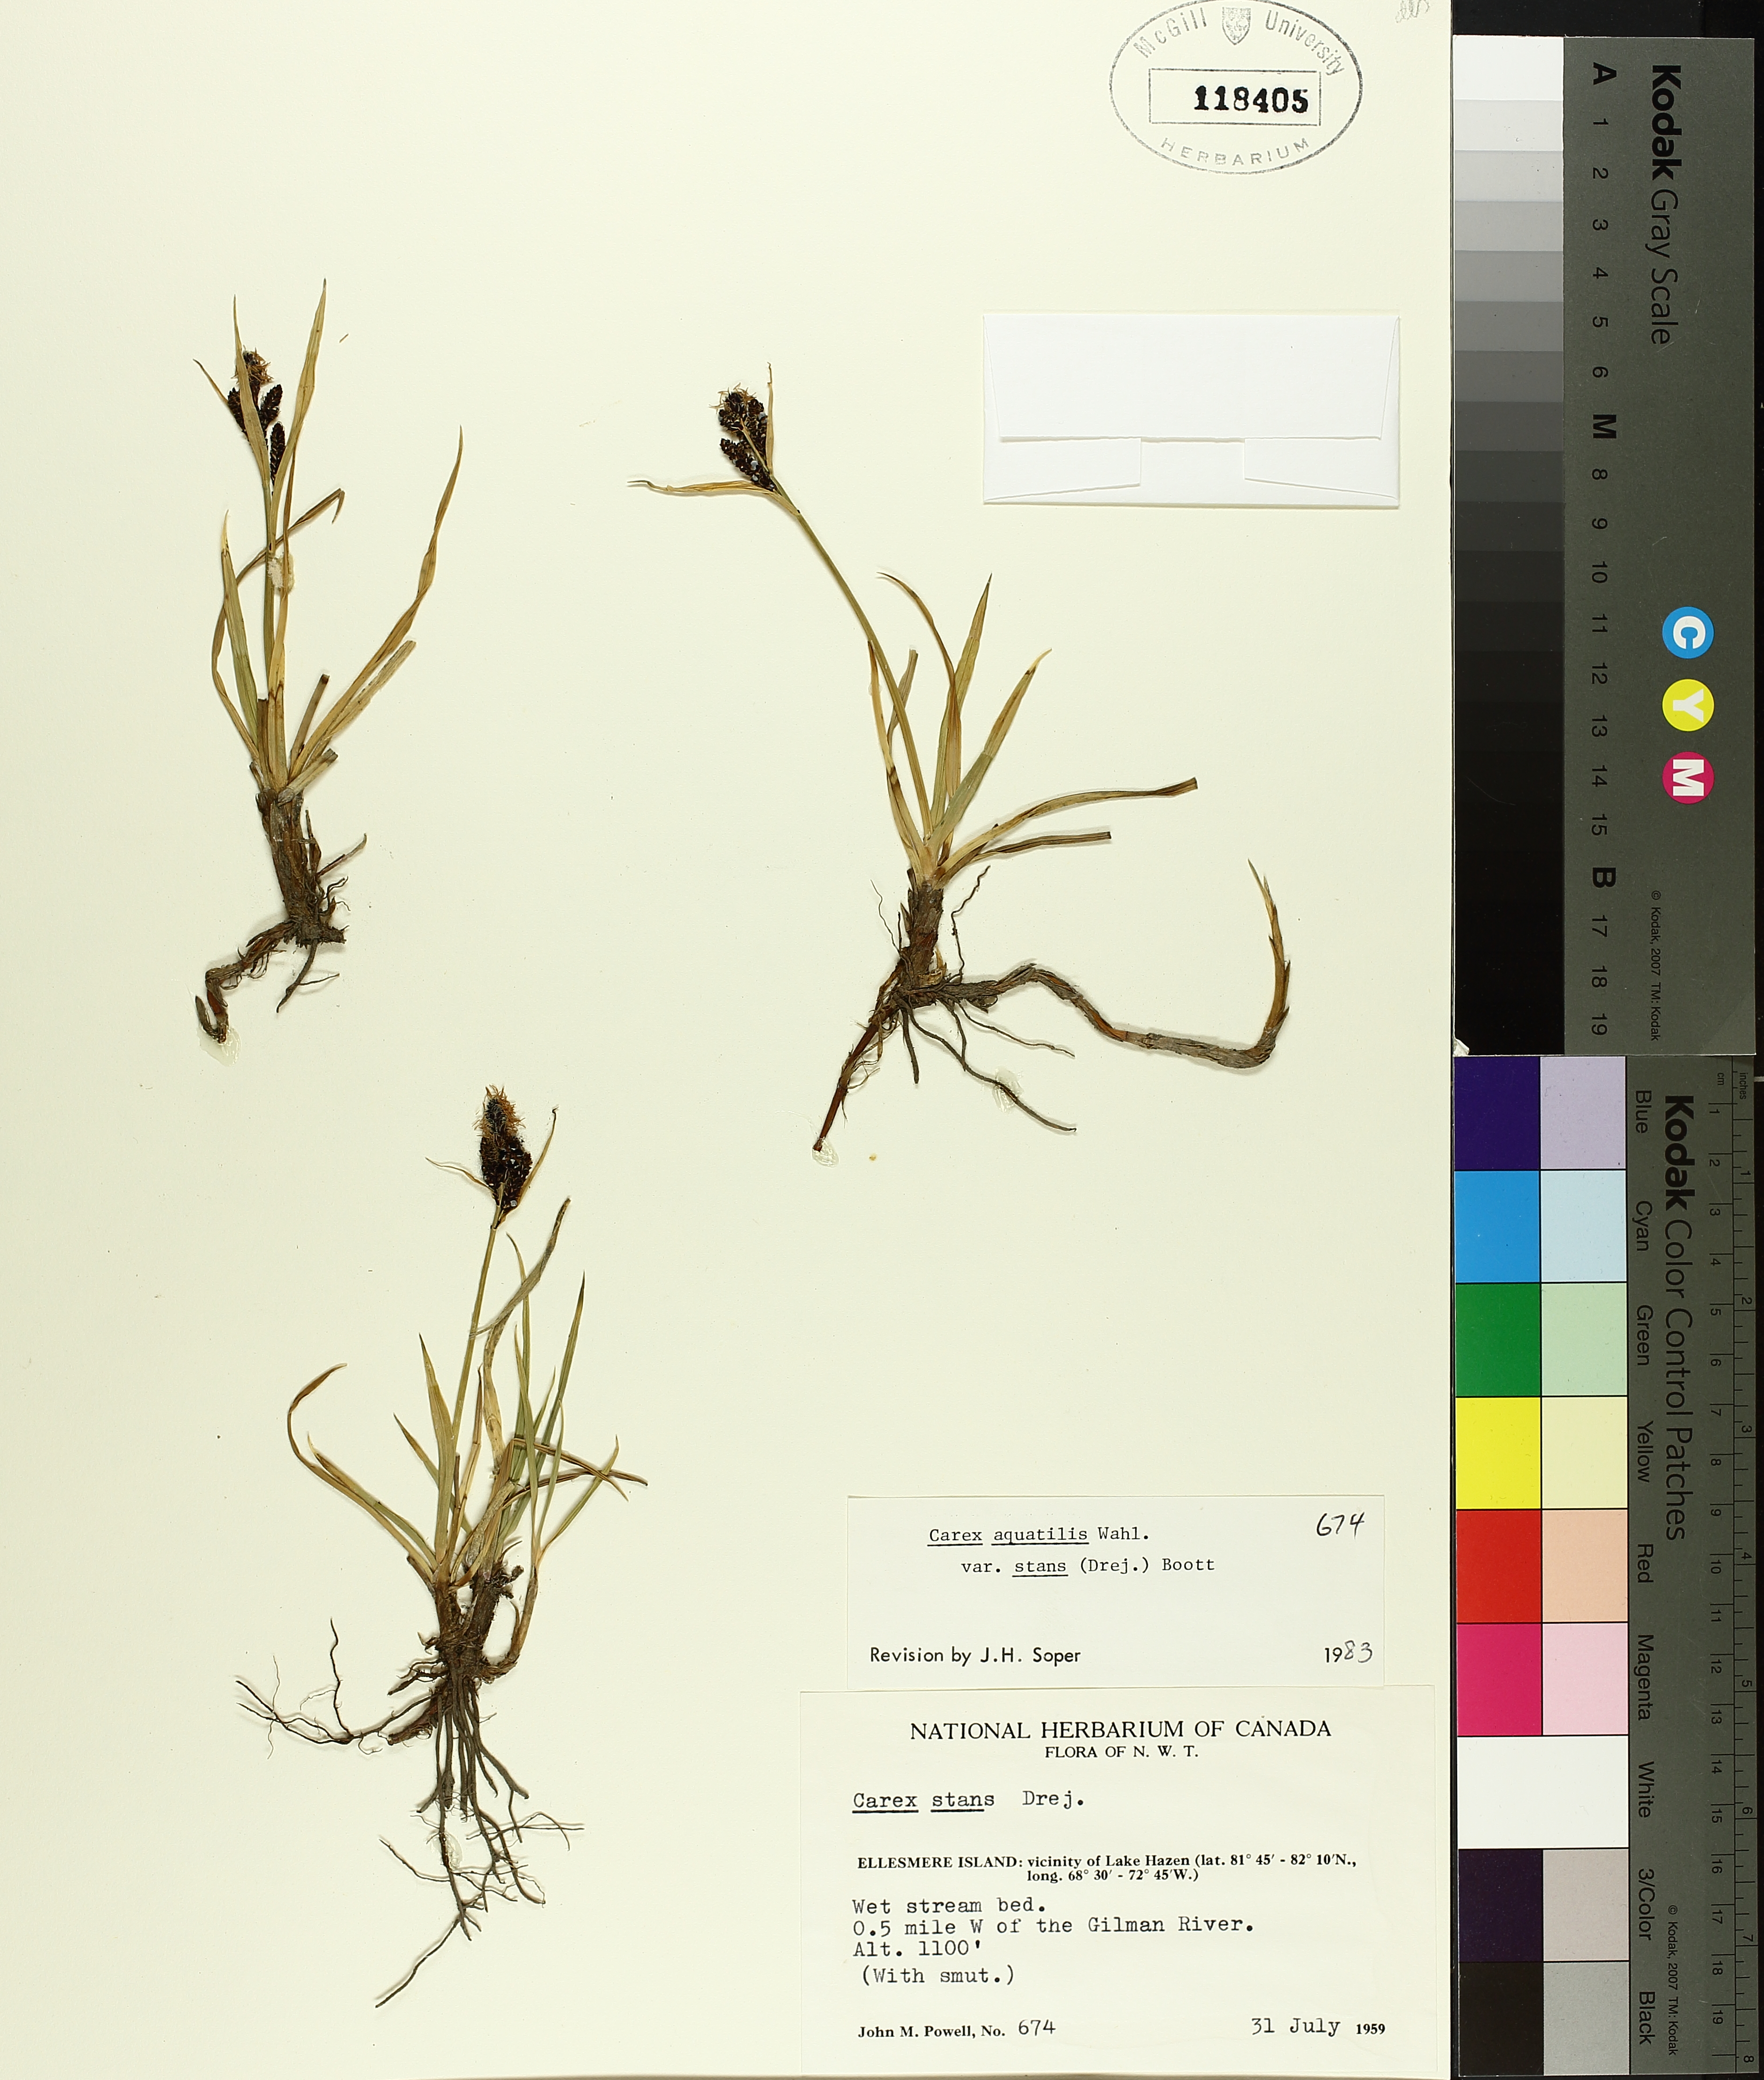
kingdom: Plantae
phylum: Tracheophyta
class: Liliopsida
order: Poales
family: Cyperaceae
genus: Carex
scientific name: Carex aquatilis
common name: Water sedge
